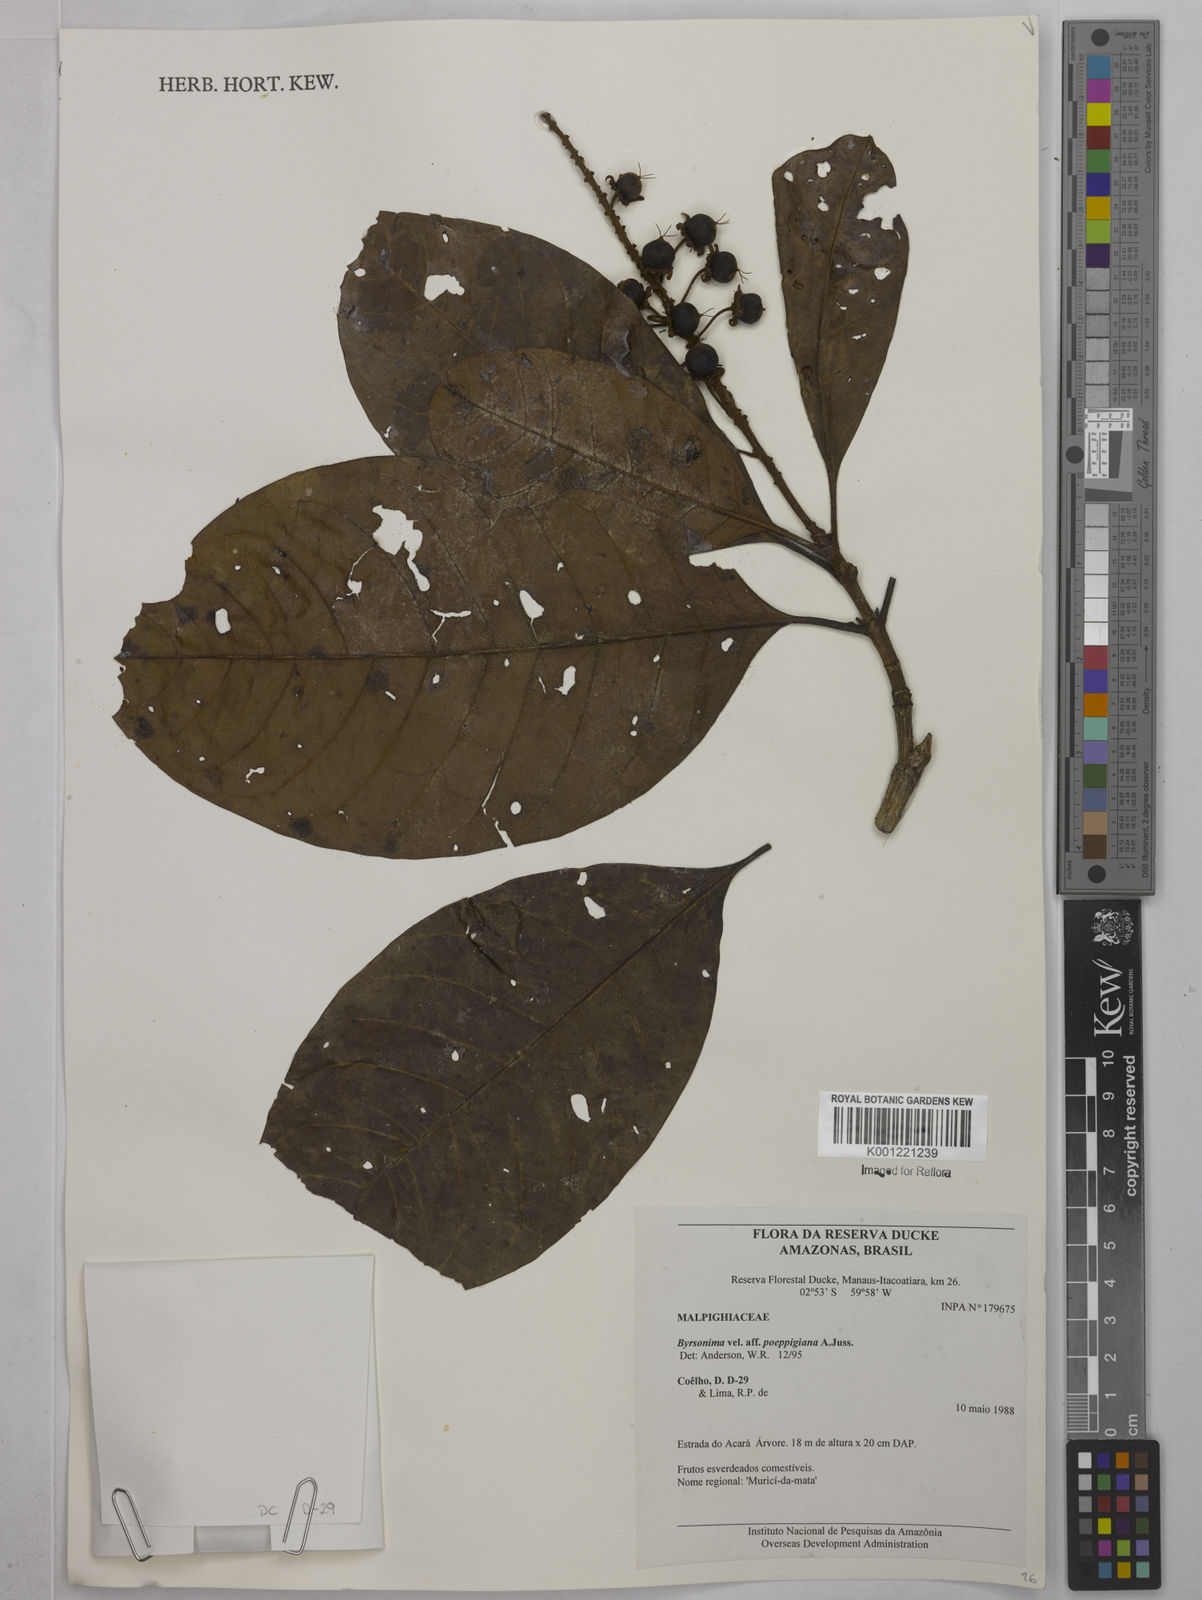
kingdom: Plantae
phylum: Tracheophyta
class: Magnoliopsida
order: Malpighiales
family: Malpighiaceae
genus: Byrsonima
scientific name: Byrsonima poeppigiana
